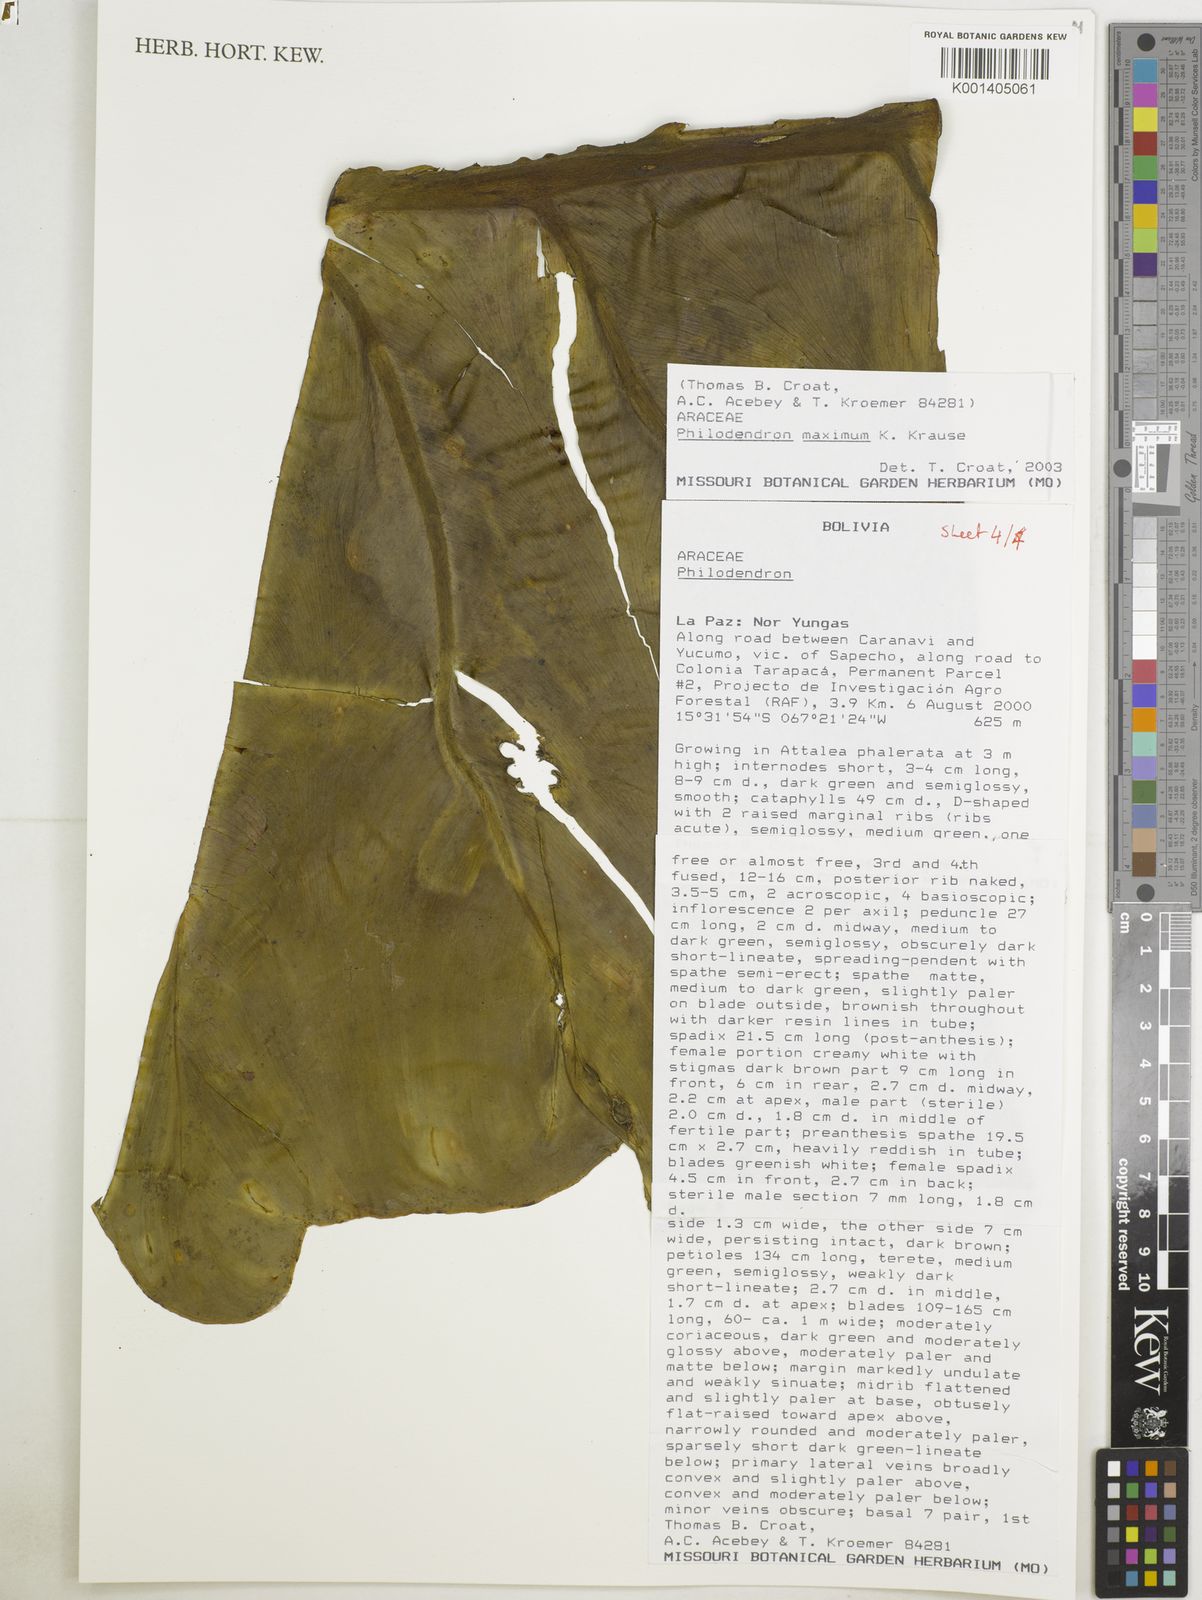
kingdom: Plantae
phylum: Tracheophyta
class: Liliopsida
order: Alismatales
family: Araceae
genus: Philodendron
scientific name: Philodendron maximum
